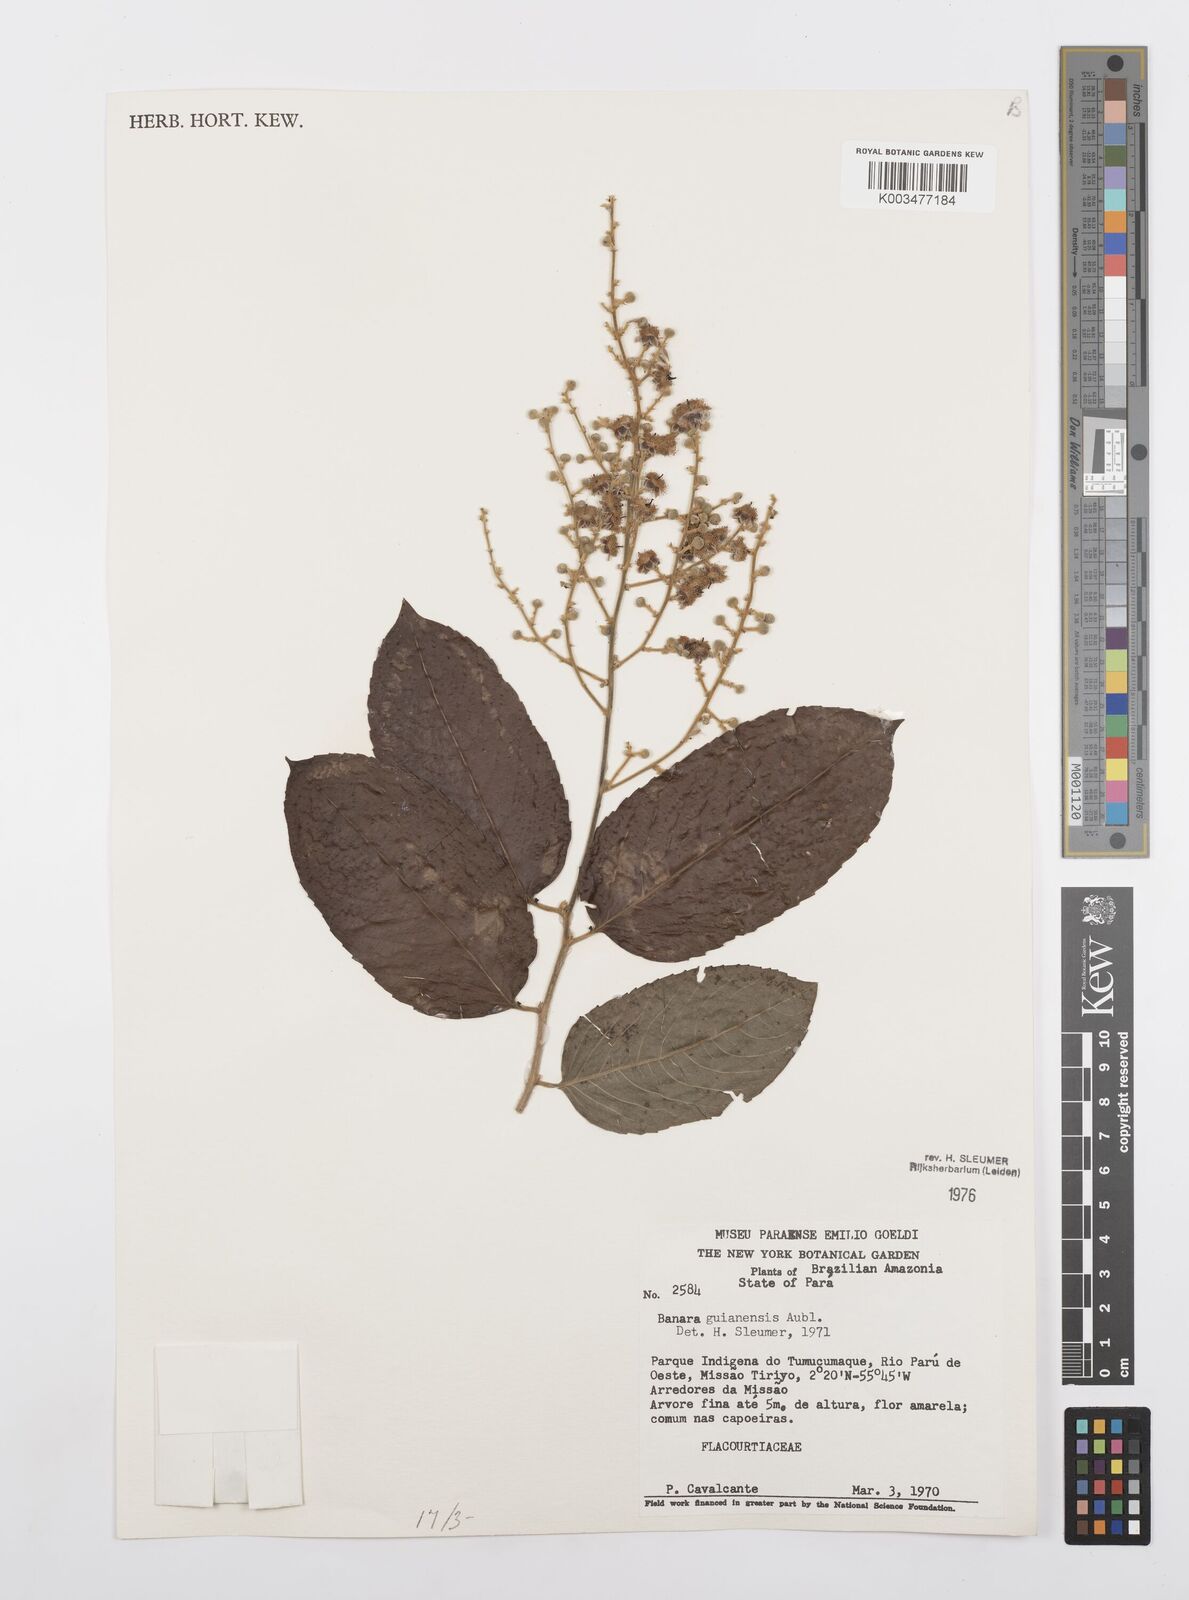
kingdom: Plantae
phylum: Tracheophyta
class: Magnoliopsida
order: Malpighiales
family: Salicaceae
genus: Banara
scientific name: Banara guianensis
